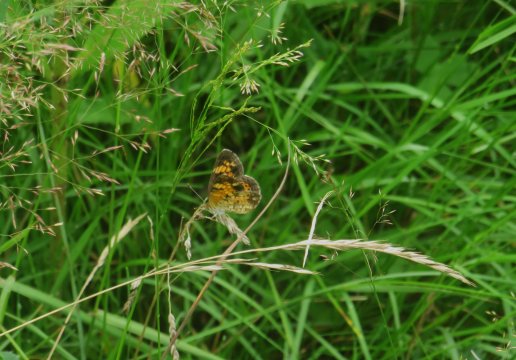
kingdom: Animalia
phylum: Arthropoda
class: Insecta
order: Lepidoptera
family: Nymphalidae
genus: Phyciodes
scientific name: Phyciodes tharos
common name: Pearl Crescent
